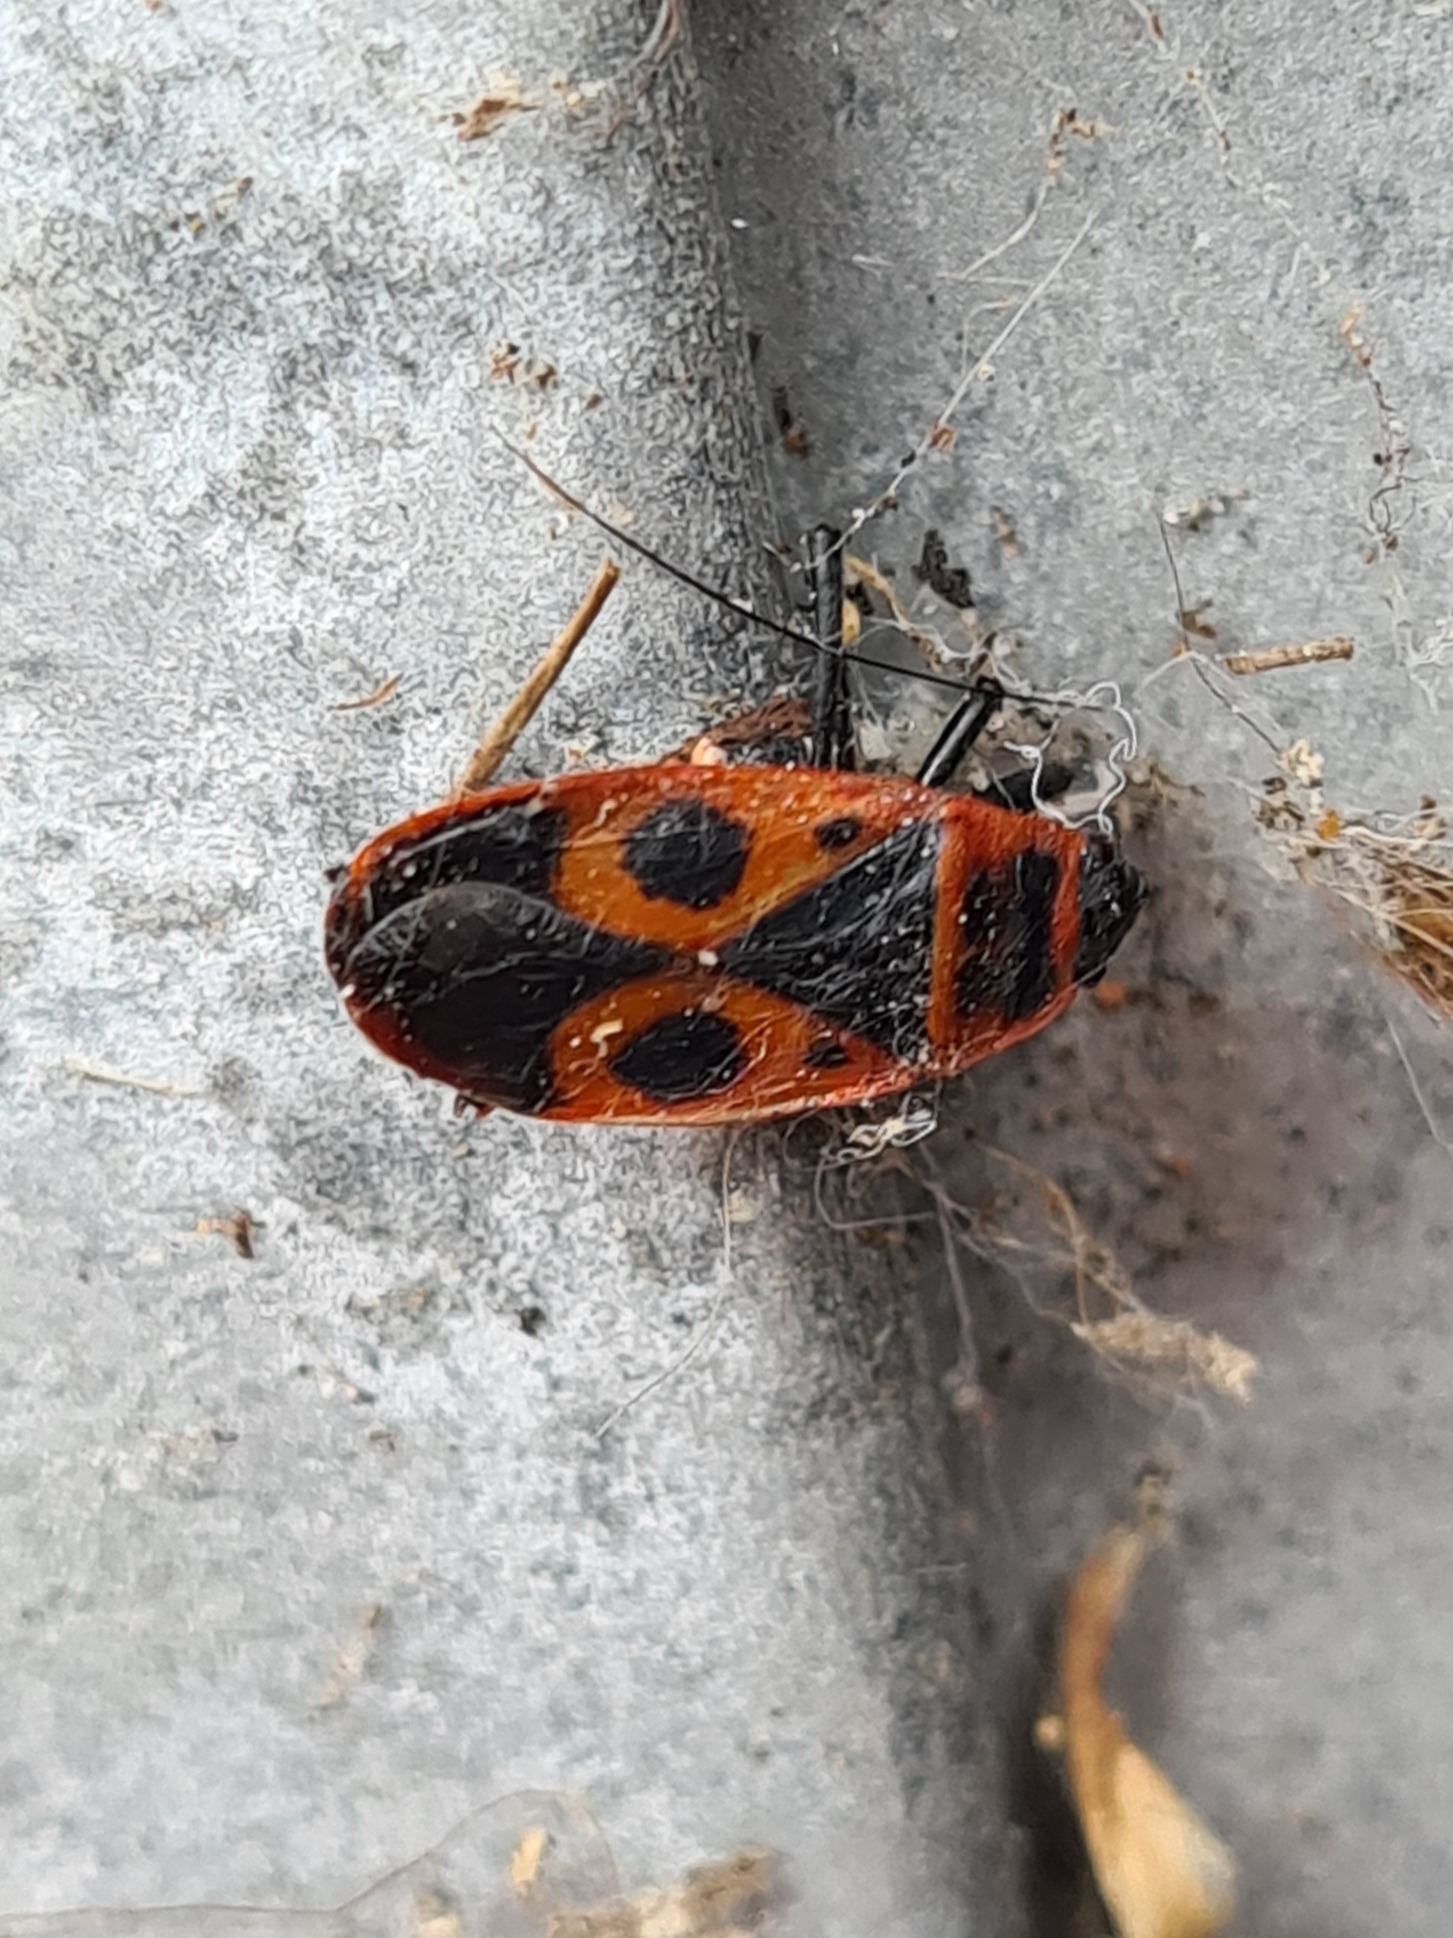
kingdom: Animalia
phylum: Arthropoda
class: Insecta
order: Hemiptera
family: Pyrrhocoridae
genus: Pyrrhocoris
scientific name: Pyrrhocoris apterus
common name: Ildtæge
